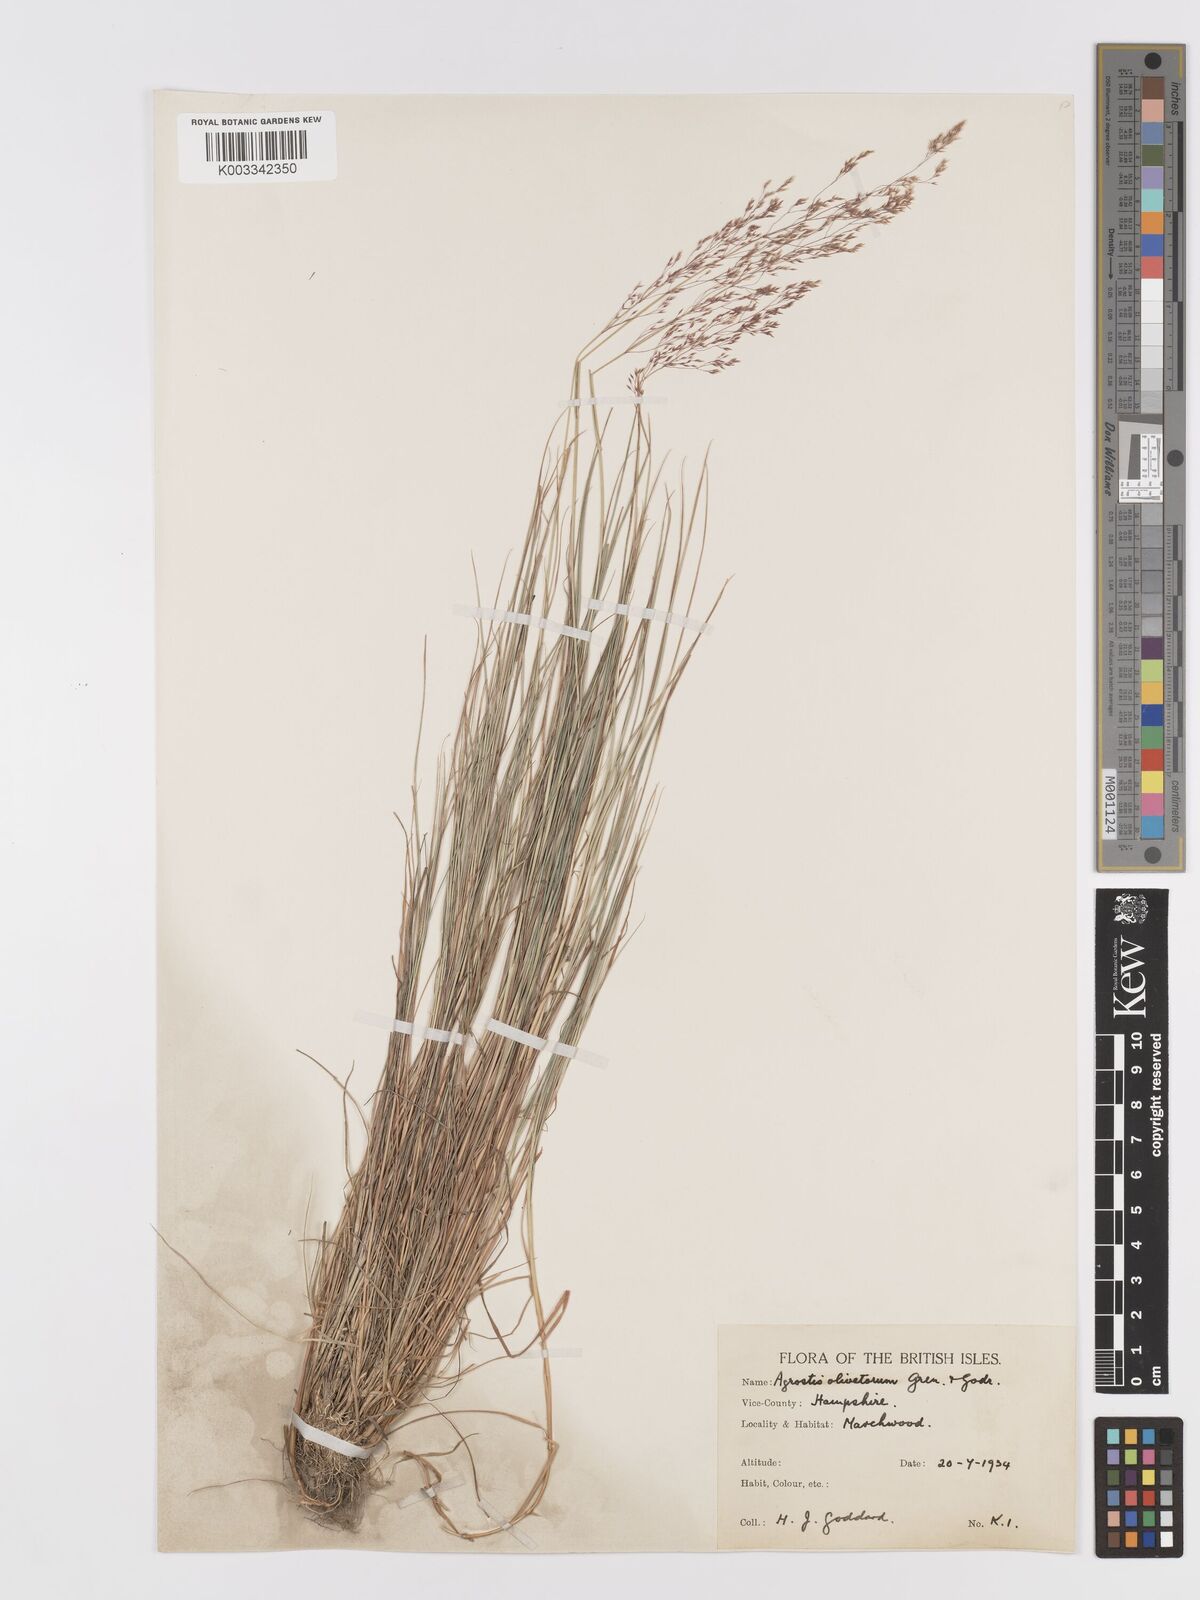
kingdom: Plantae
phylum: Tracheophyta
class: Liliopsida
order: Poales
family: Poaceae
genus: Agrostis
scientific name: Agrostis castellana
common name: Highland bent
